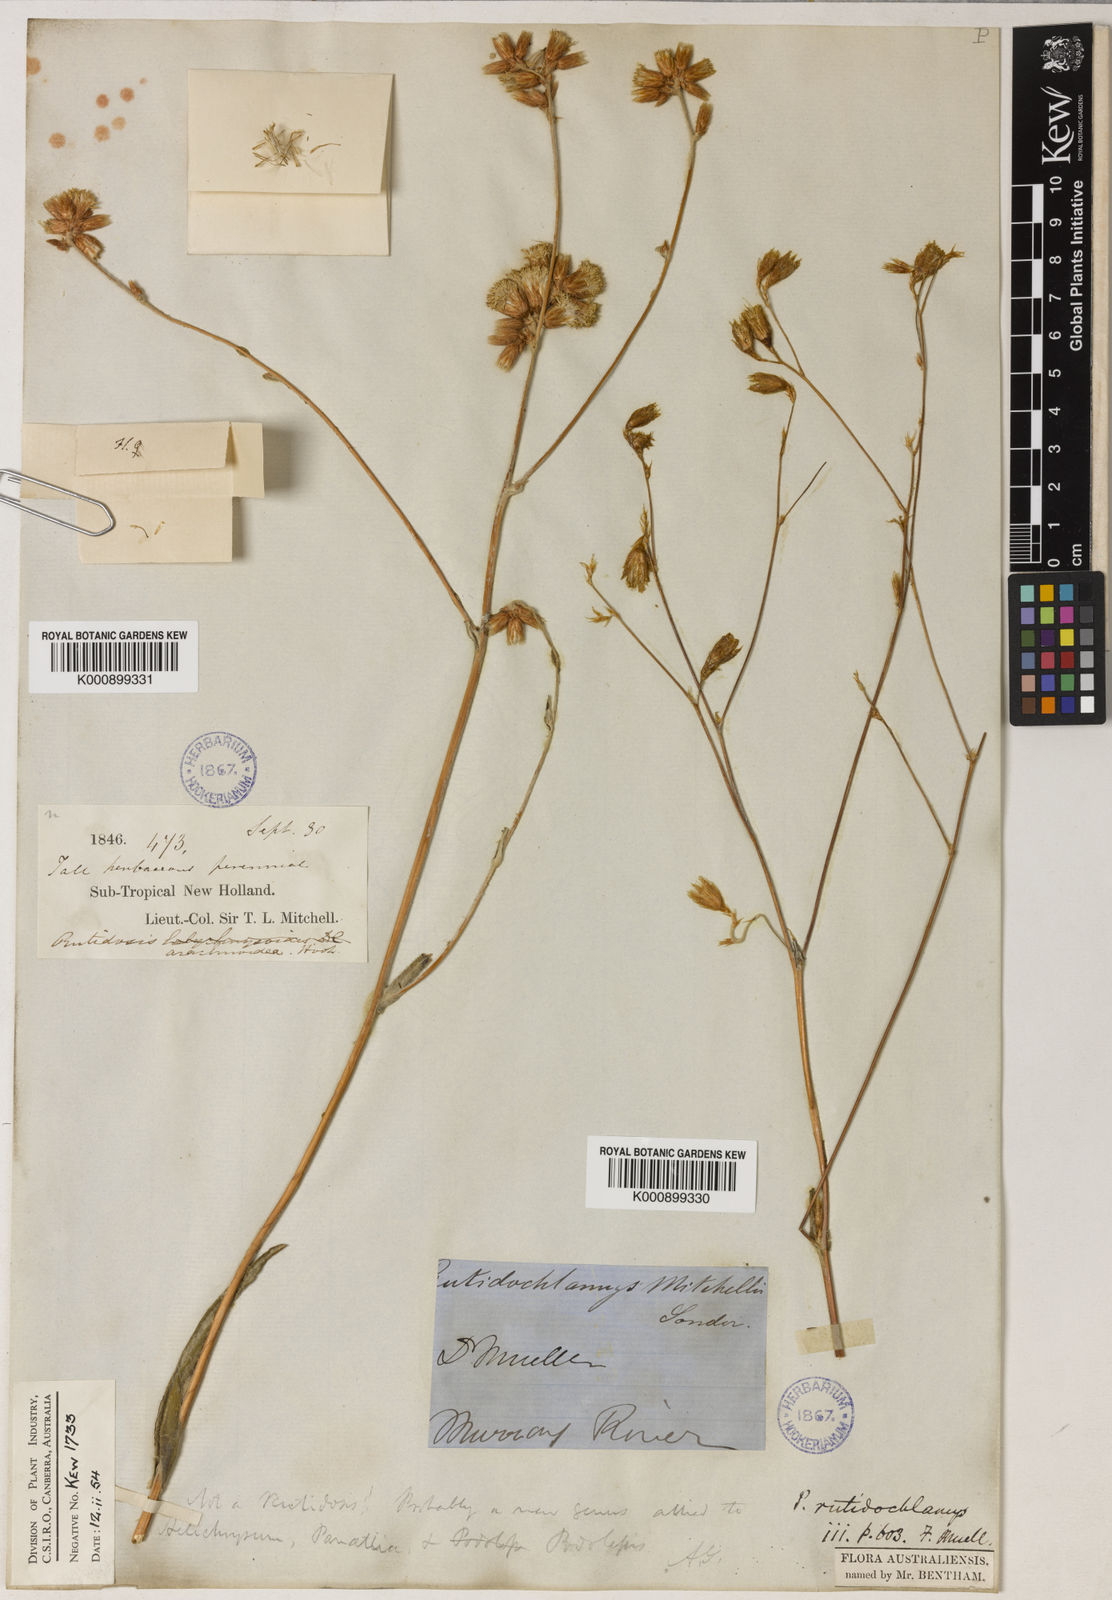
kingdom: Plantae
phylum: Tracheophyta
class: Magnoliopsida
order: Asterales
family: Asteraceae
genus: Podolepis
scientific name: Podolepis arachnoidea
